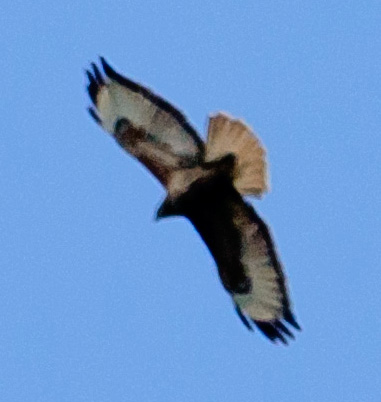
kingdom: Animalia
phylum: Chordata
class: Aves
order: Accipitriformes
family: Accipitridae
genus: Buteo
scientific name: Buteo rufinus
